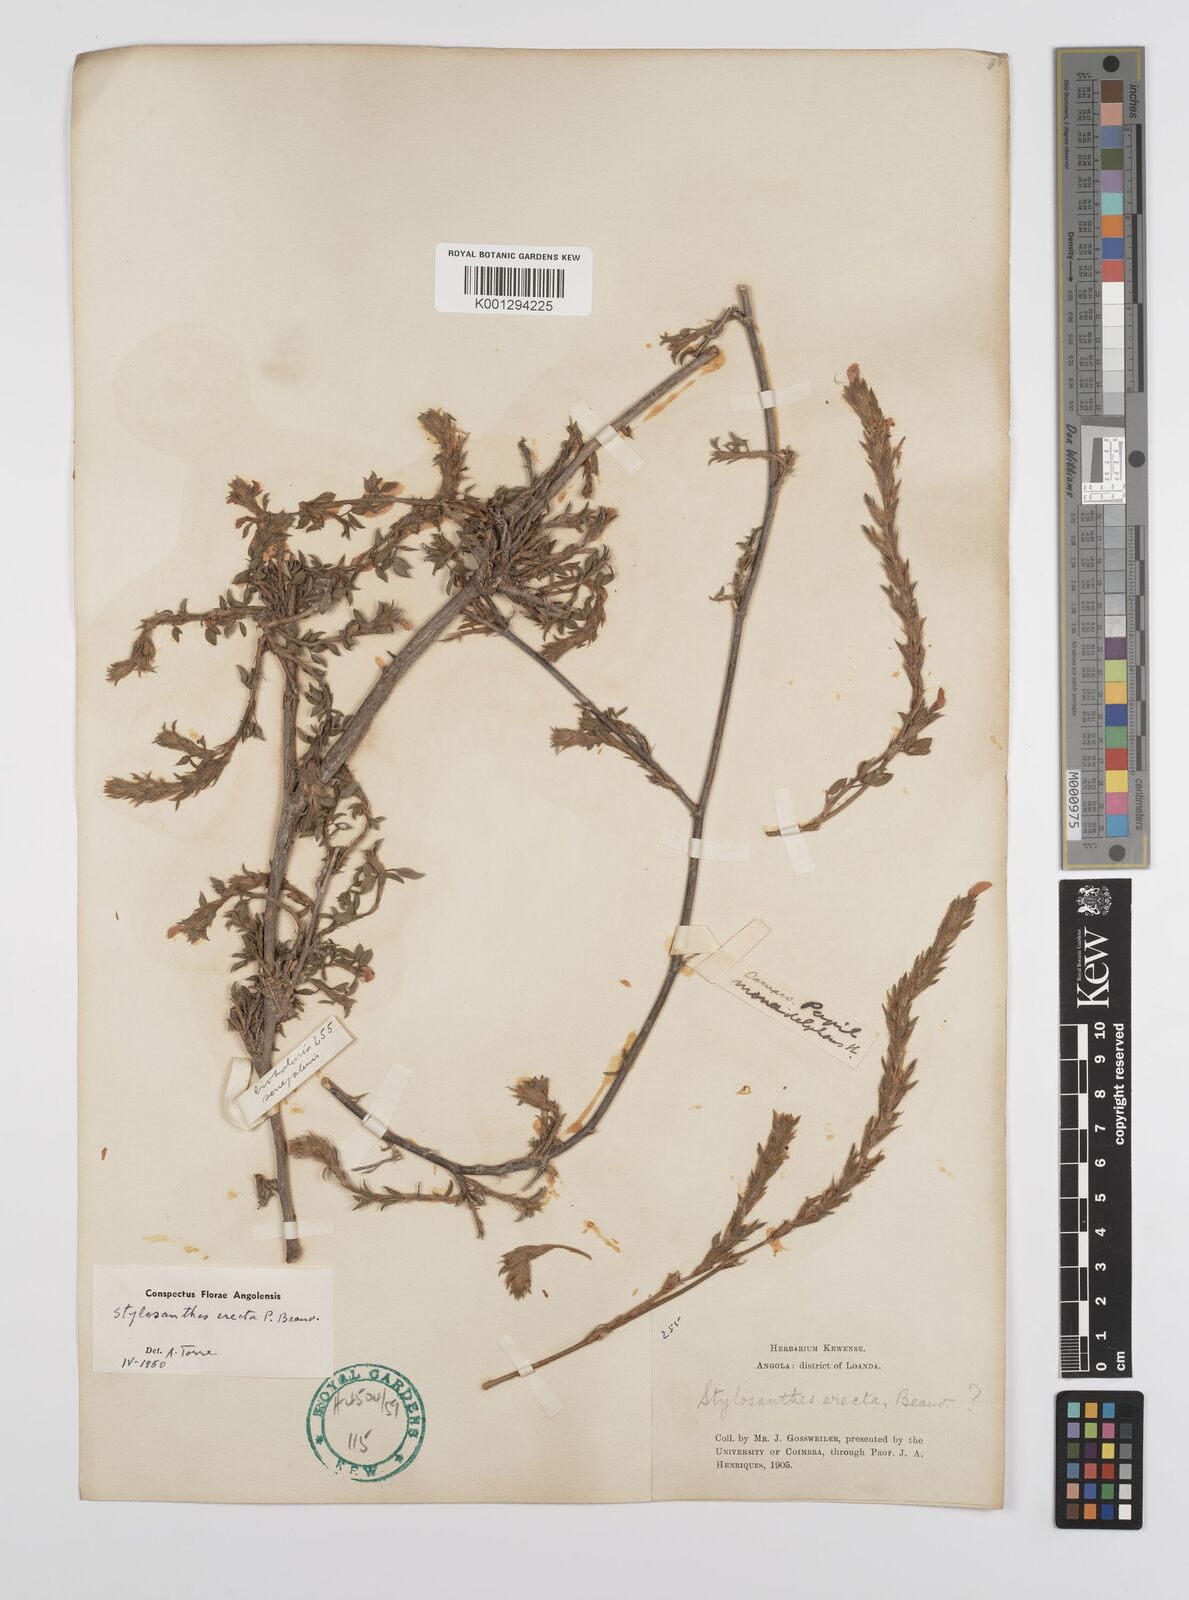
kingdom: Plantae
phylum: Tracheophyta
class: Magnoliopsida
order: Fabales
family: Fabaceae
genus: Stylosanthes
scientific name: Stylosanthes erecta
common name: Nigerian stylo
